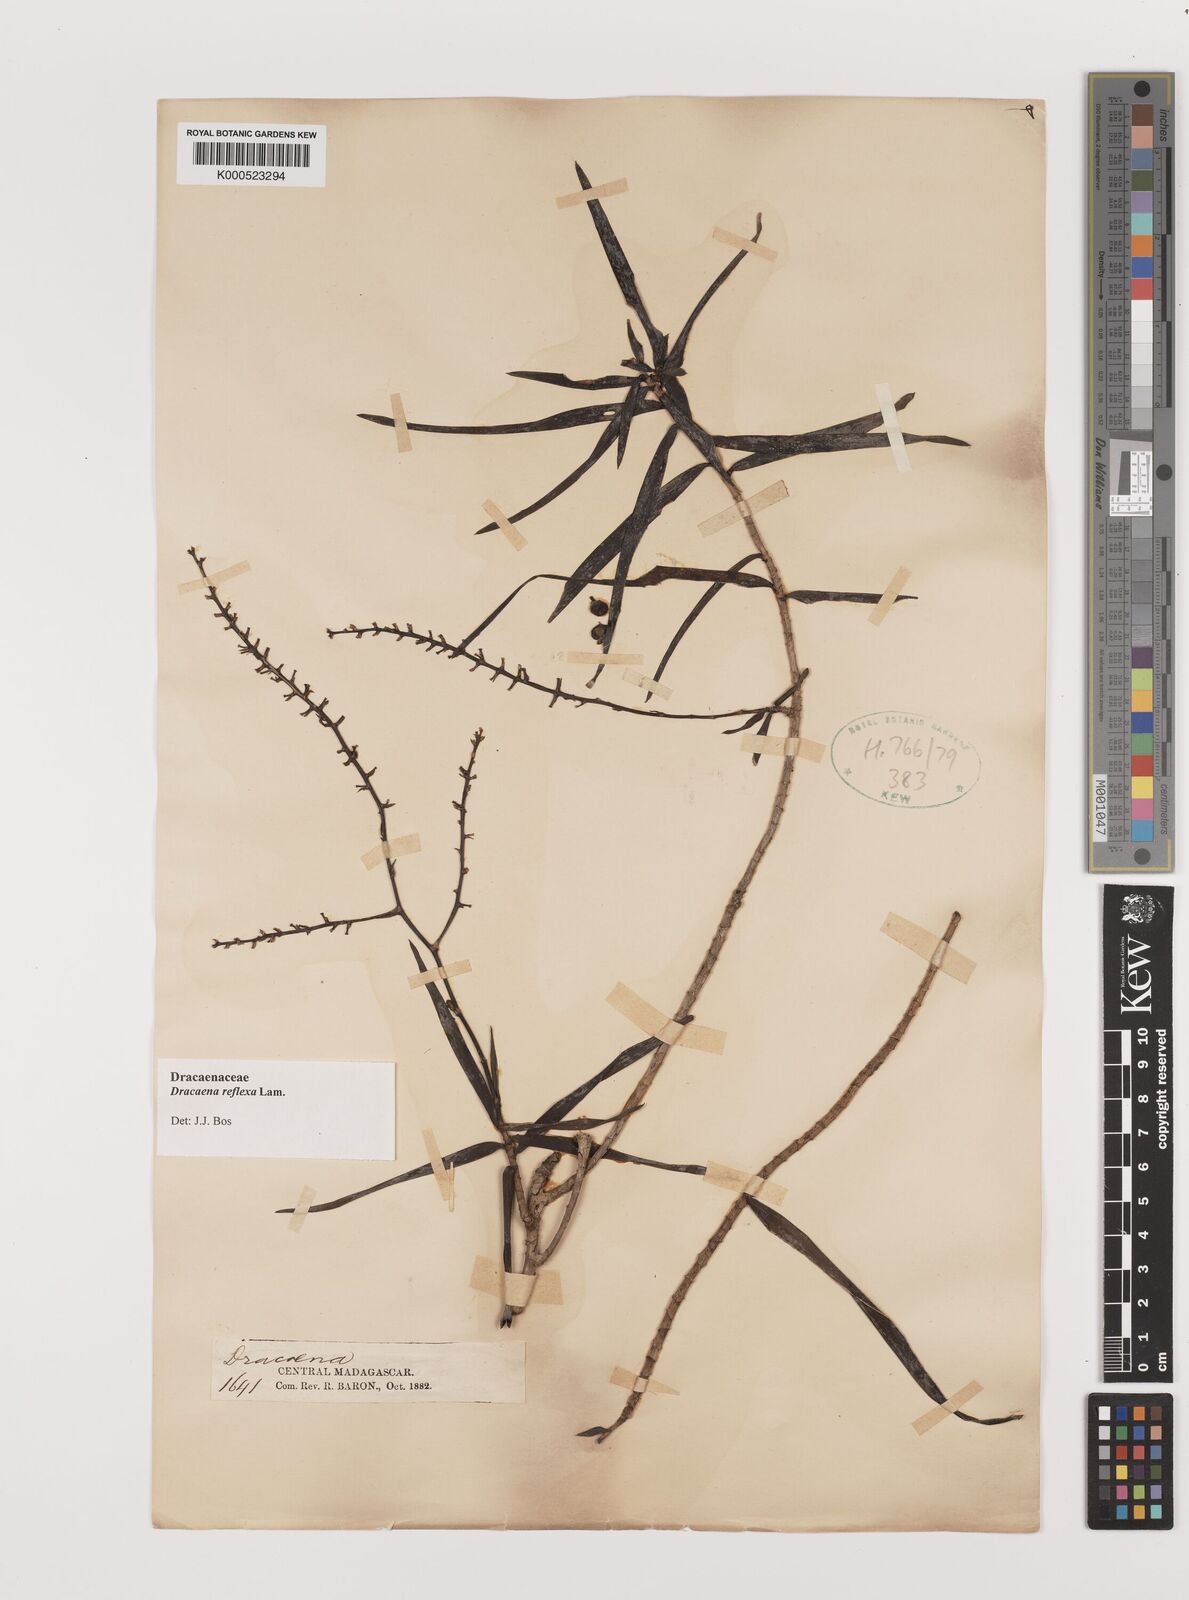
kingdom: Plantae
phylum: Tracheophyta
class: Liliopsida
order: Asparagales
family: Asparagaceae
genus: Dracaena
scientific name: Dracaena reflexa
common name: Song-of-india
